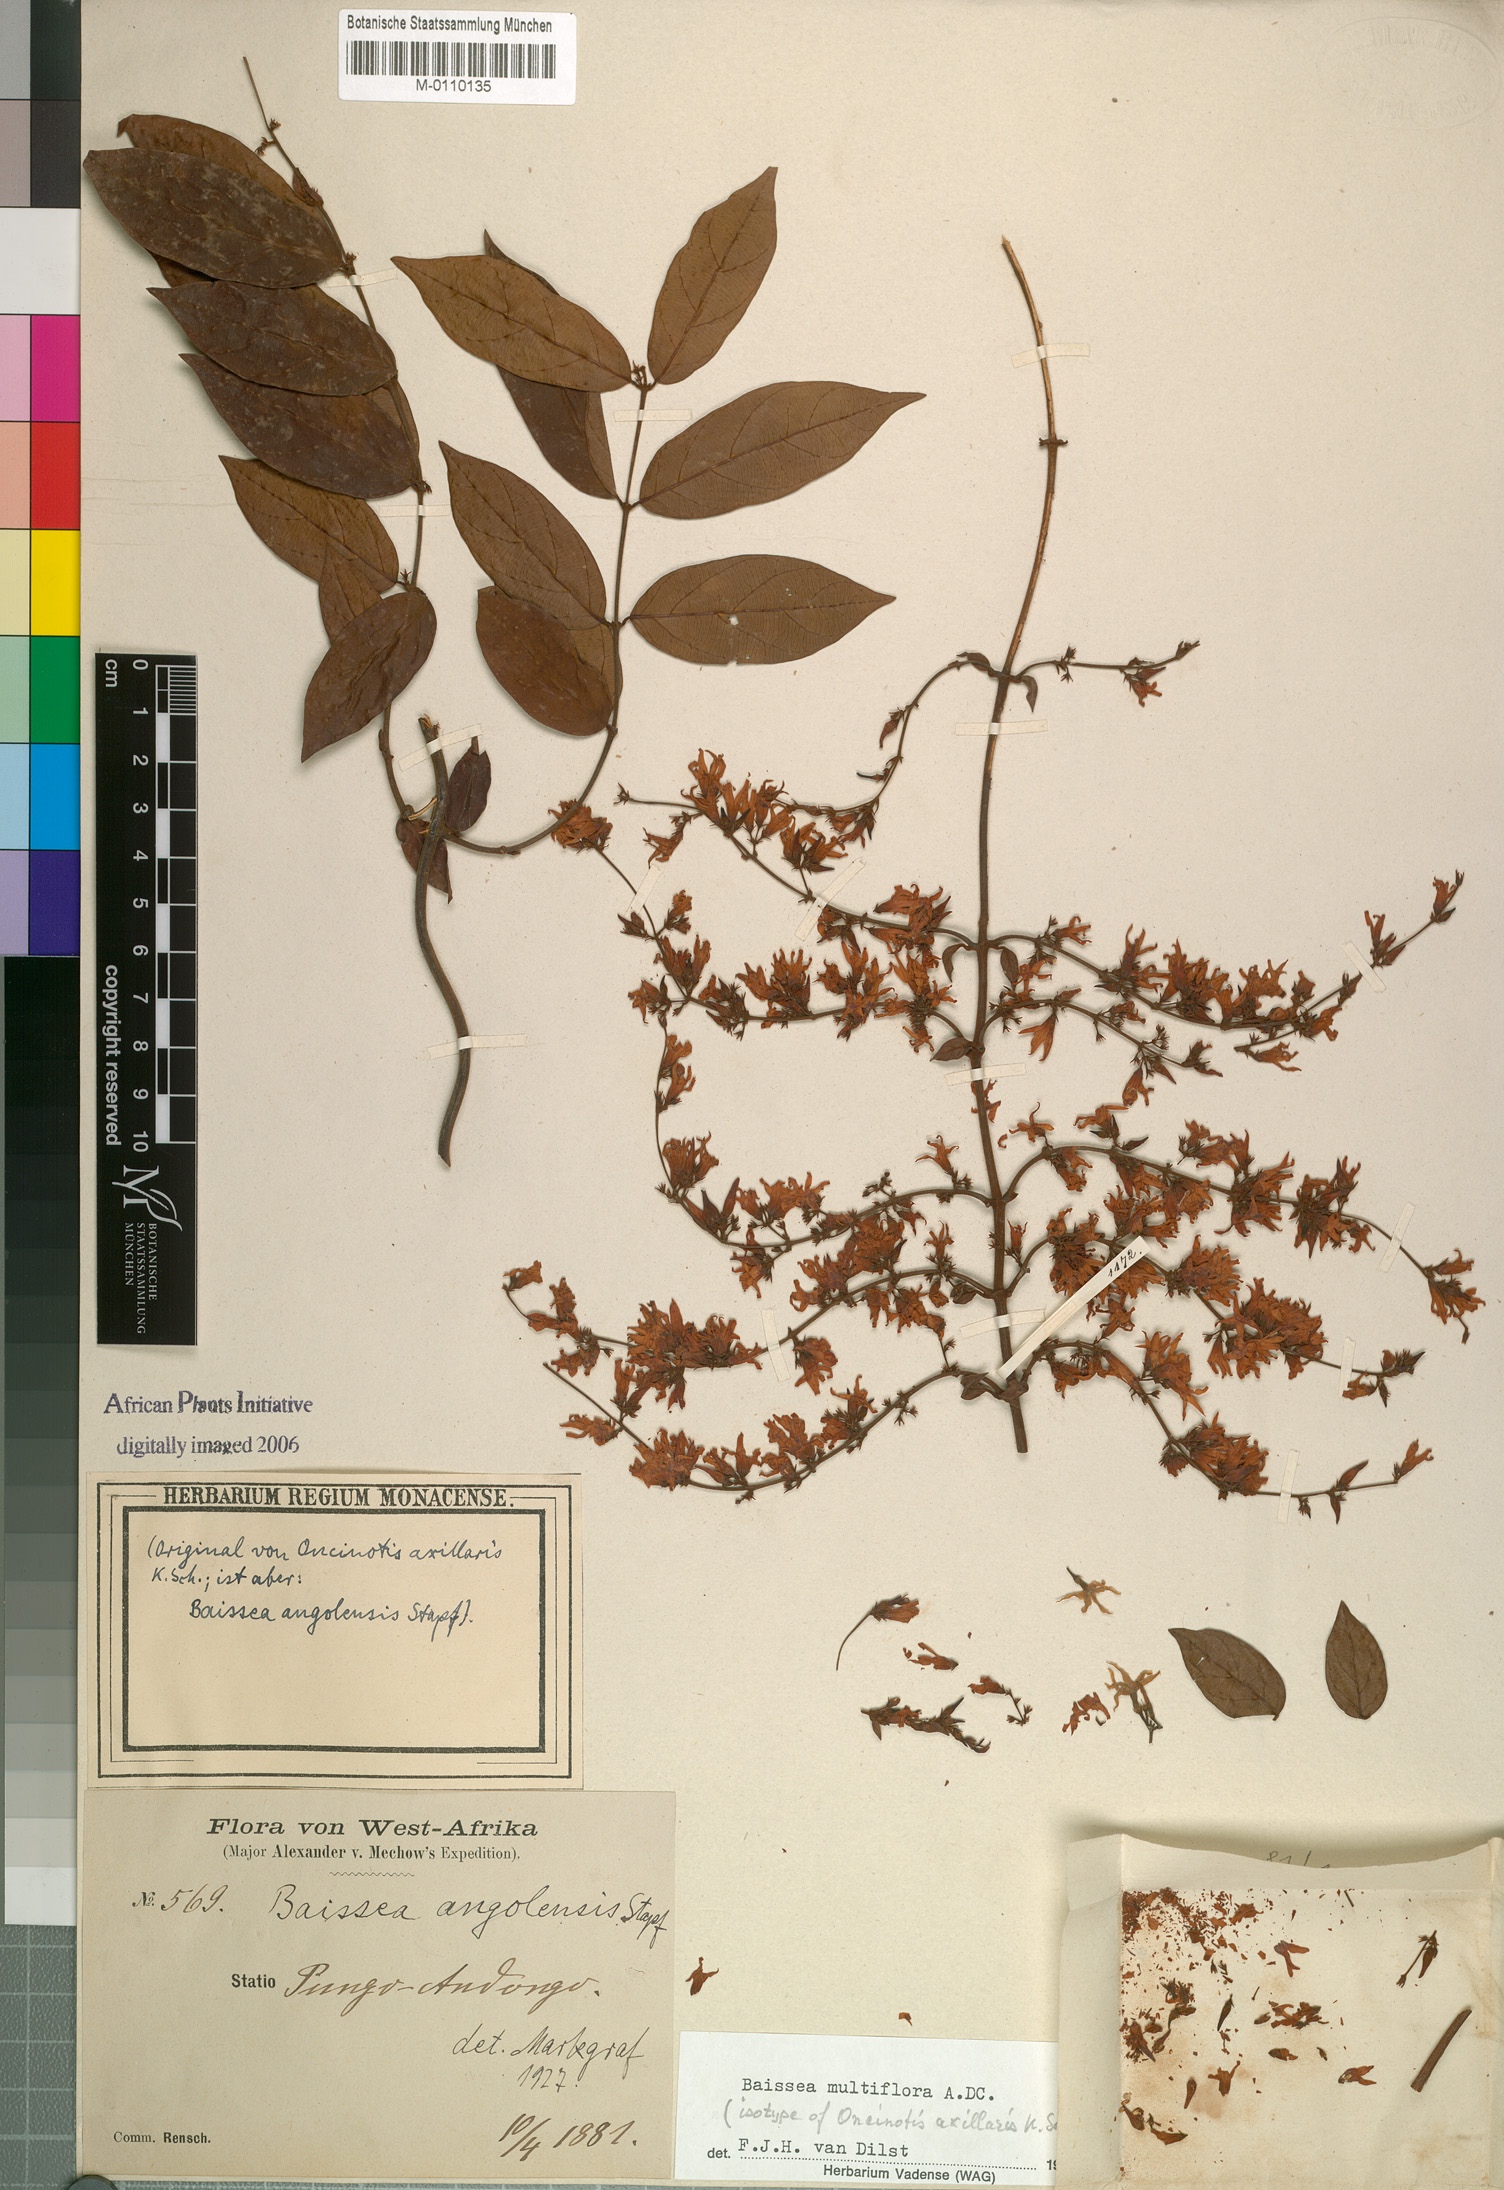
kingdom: Plantae
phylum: Tracheophyta
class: Magnoliopsida
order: Gentianales
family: Apocynaceae
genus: Baissea
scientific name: Baissea multiflora
